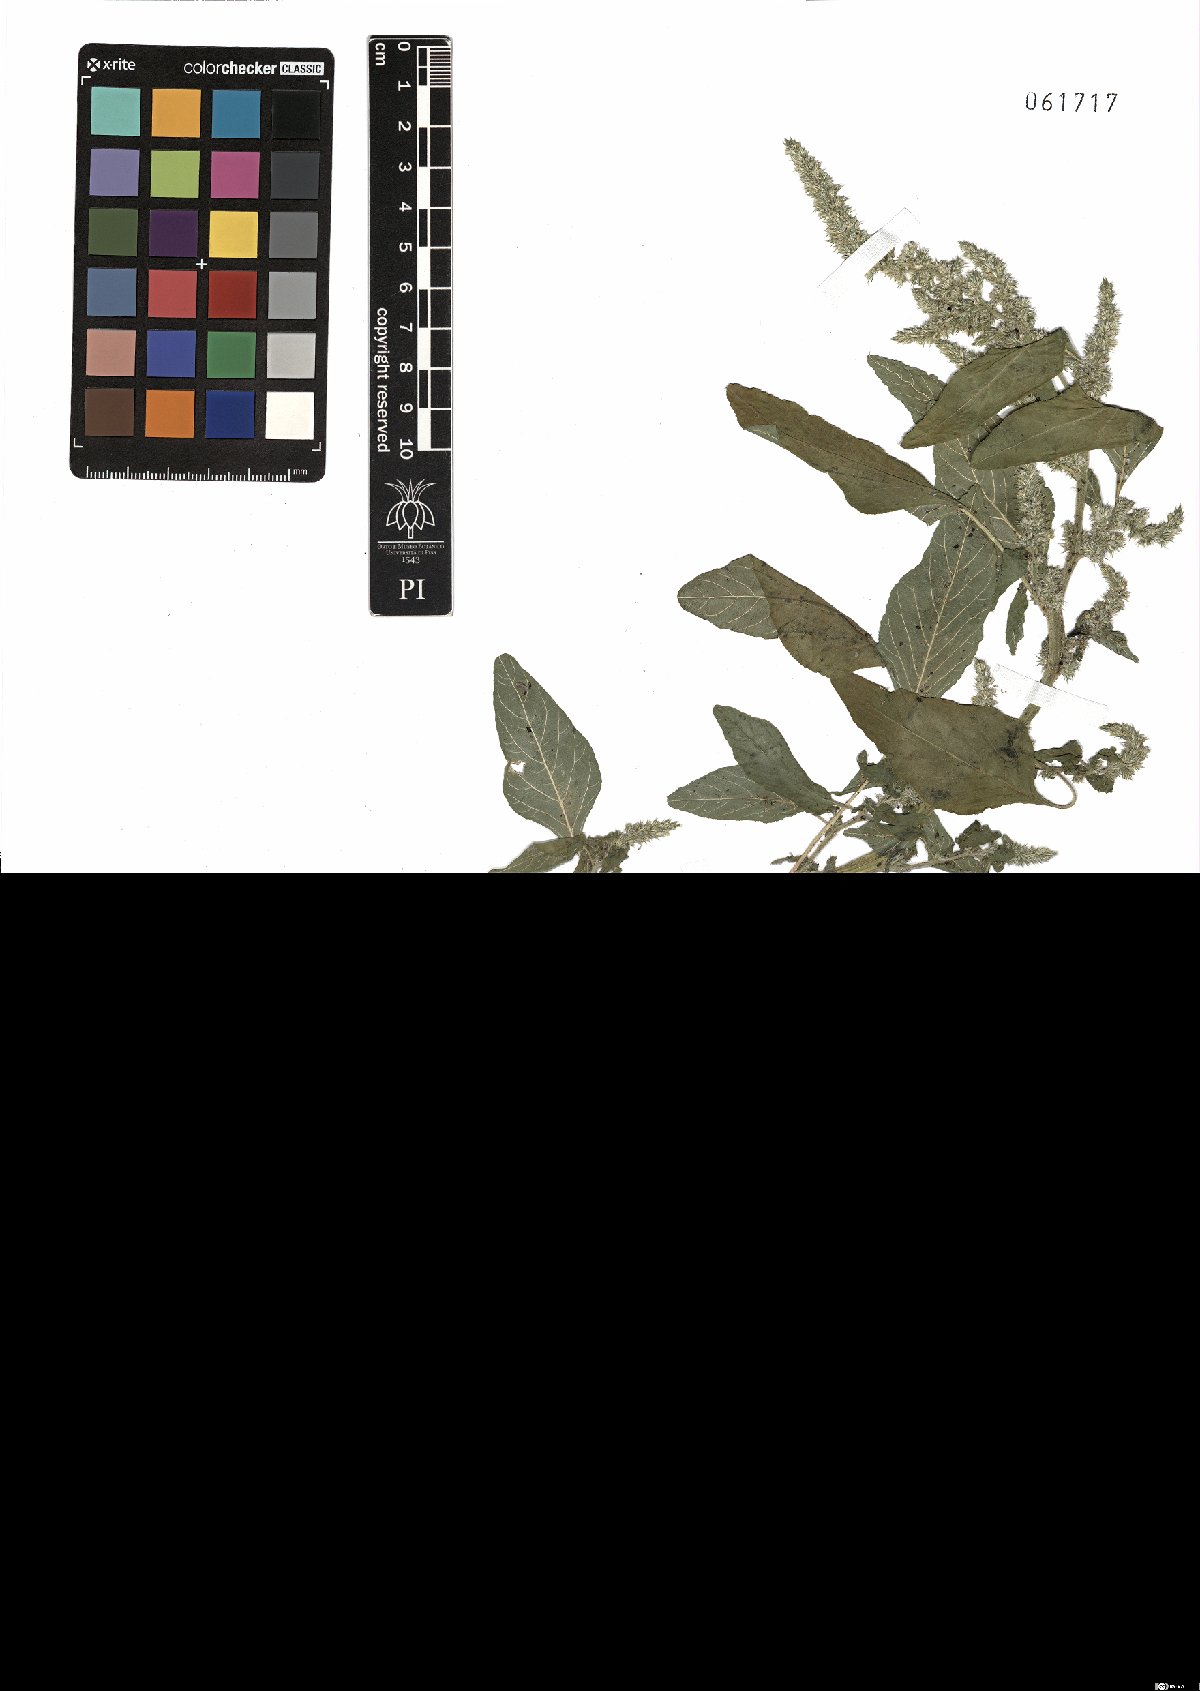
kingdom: Plantae
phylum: Tracheophyta
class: Magnoliopsida
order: Caryophyllales
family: Amaranthaceae
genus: Amaranthus
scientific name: Amaranthus retroflexus
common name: Redroot amaranth
